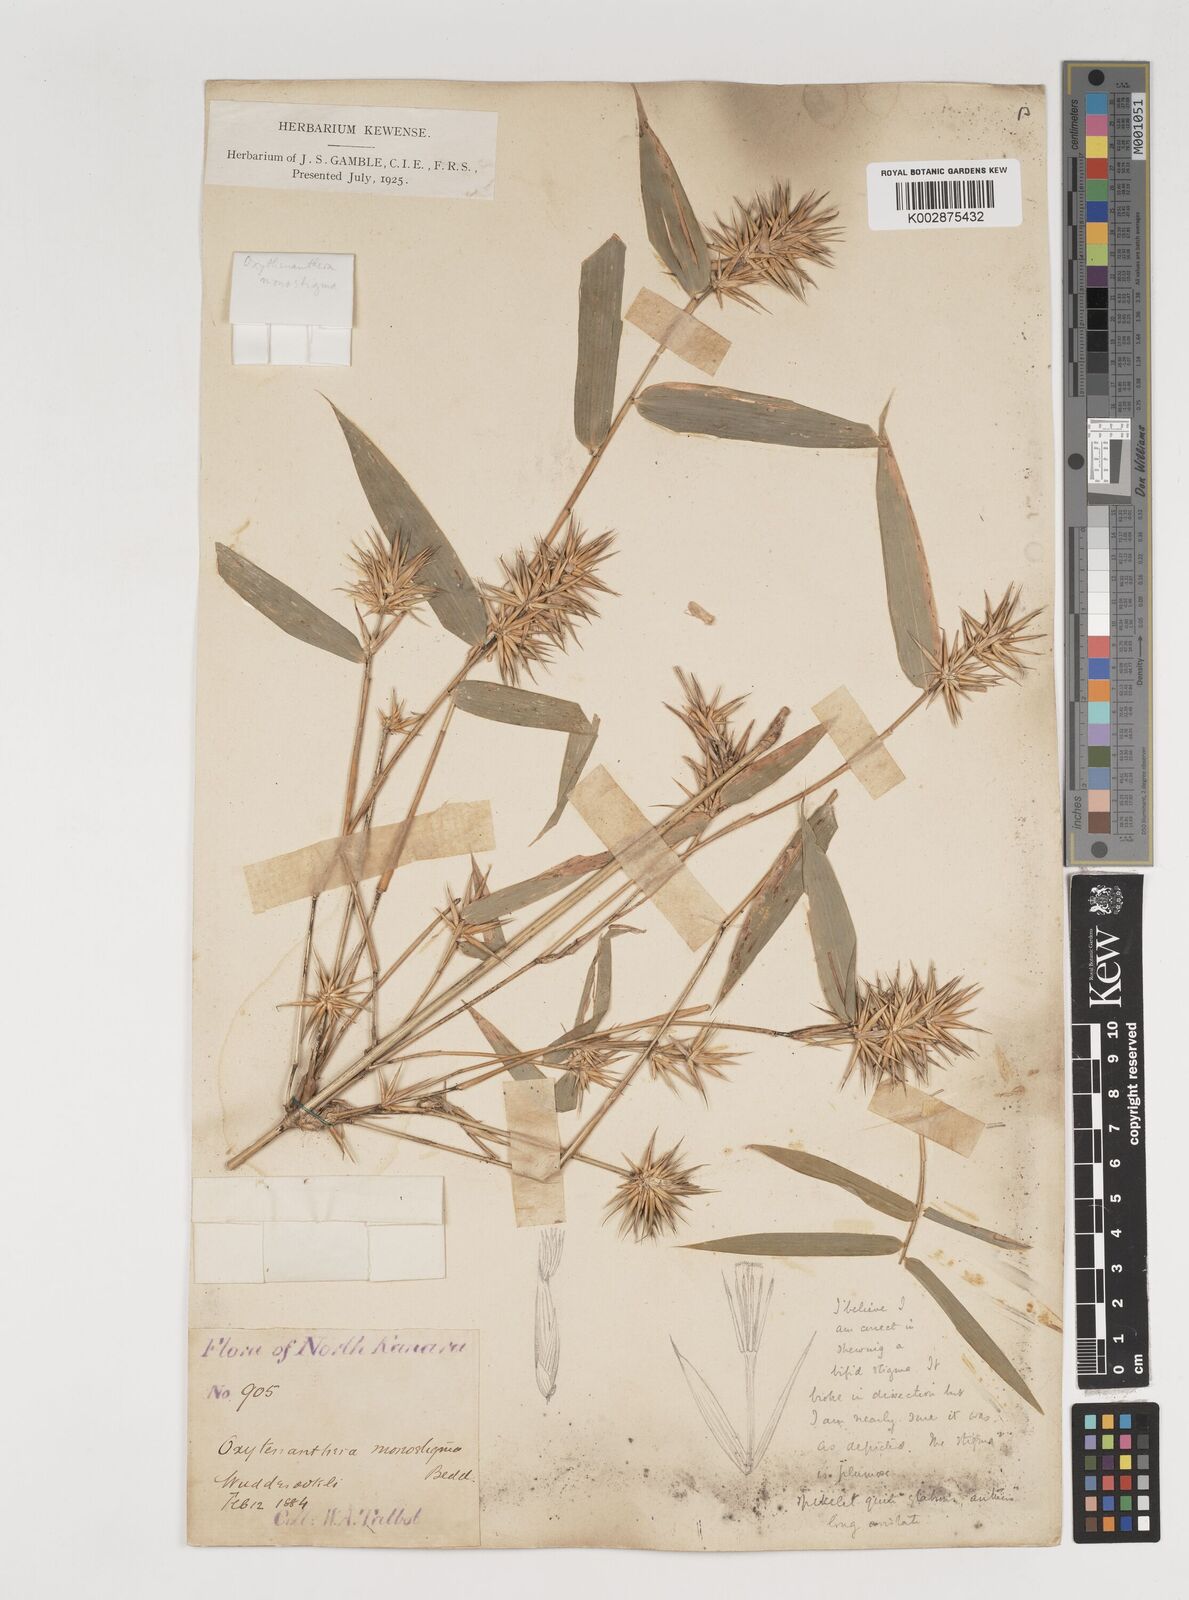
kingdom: Plantae
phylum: Tracheophyta
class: Liliopsida
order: Poales
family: Poaceae
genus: Dendrocalamus
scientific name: Dendrocalamus
